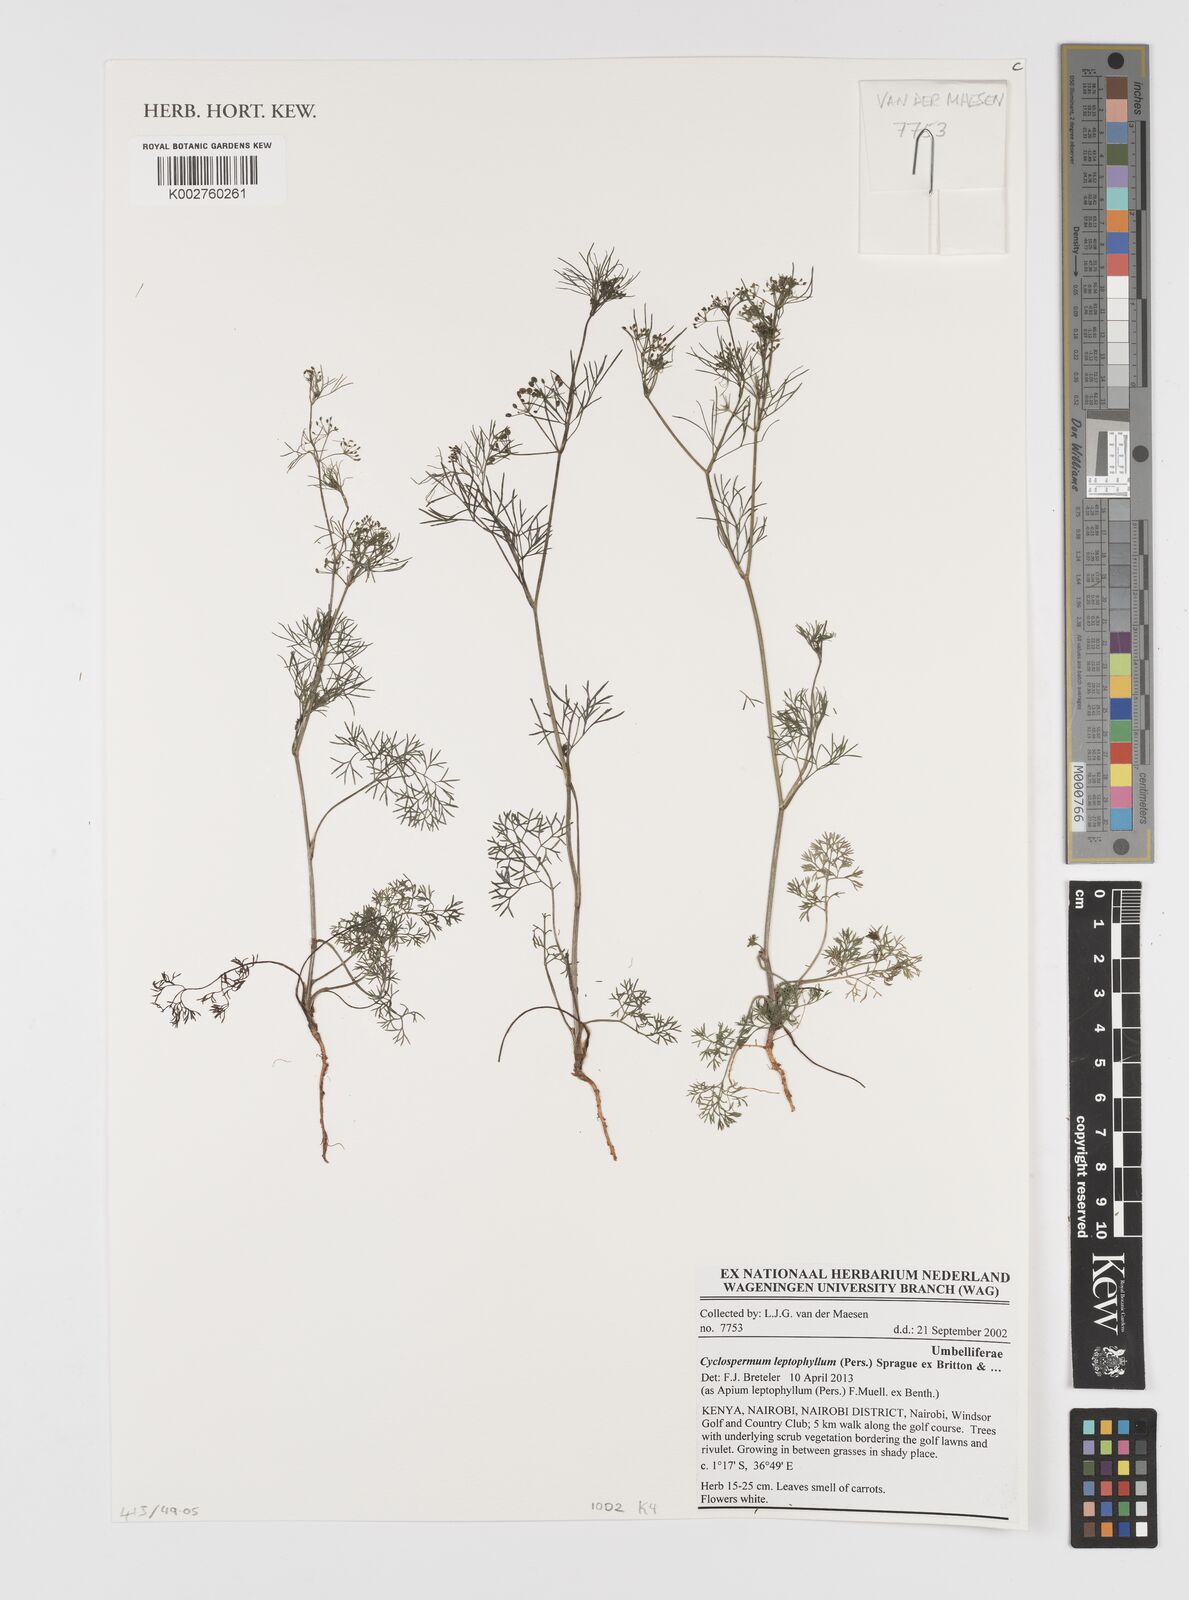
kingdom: Plantae
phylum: Tracheophyta
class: Magnoliopsida
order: Apiales
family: Apiaceae
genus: Cyclospermum
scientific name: Cyclospermum leptophyllum
